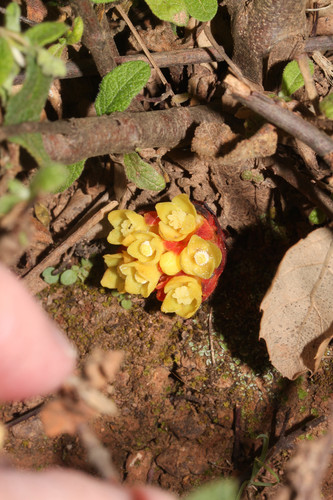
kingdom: Plantae
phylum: Tracheophyta
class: Magnoliopsida
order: Malvales
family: Cytinaceae
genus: Cytinus
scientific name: Cytinus hypocistis
